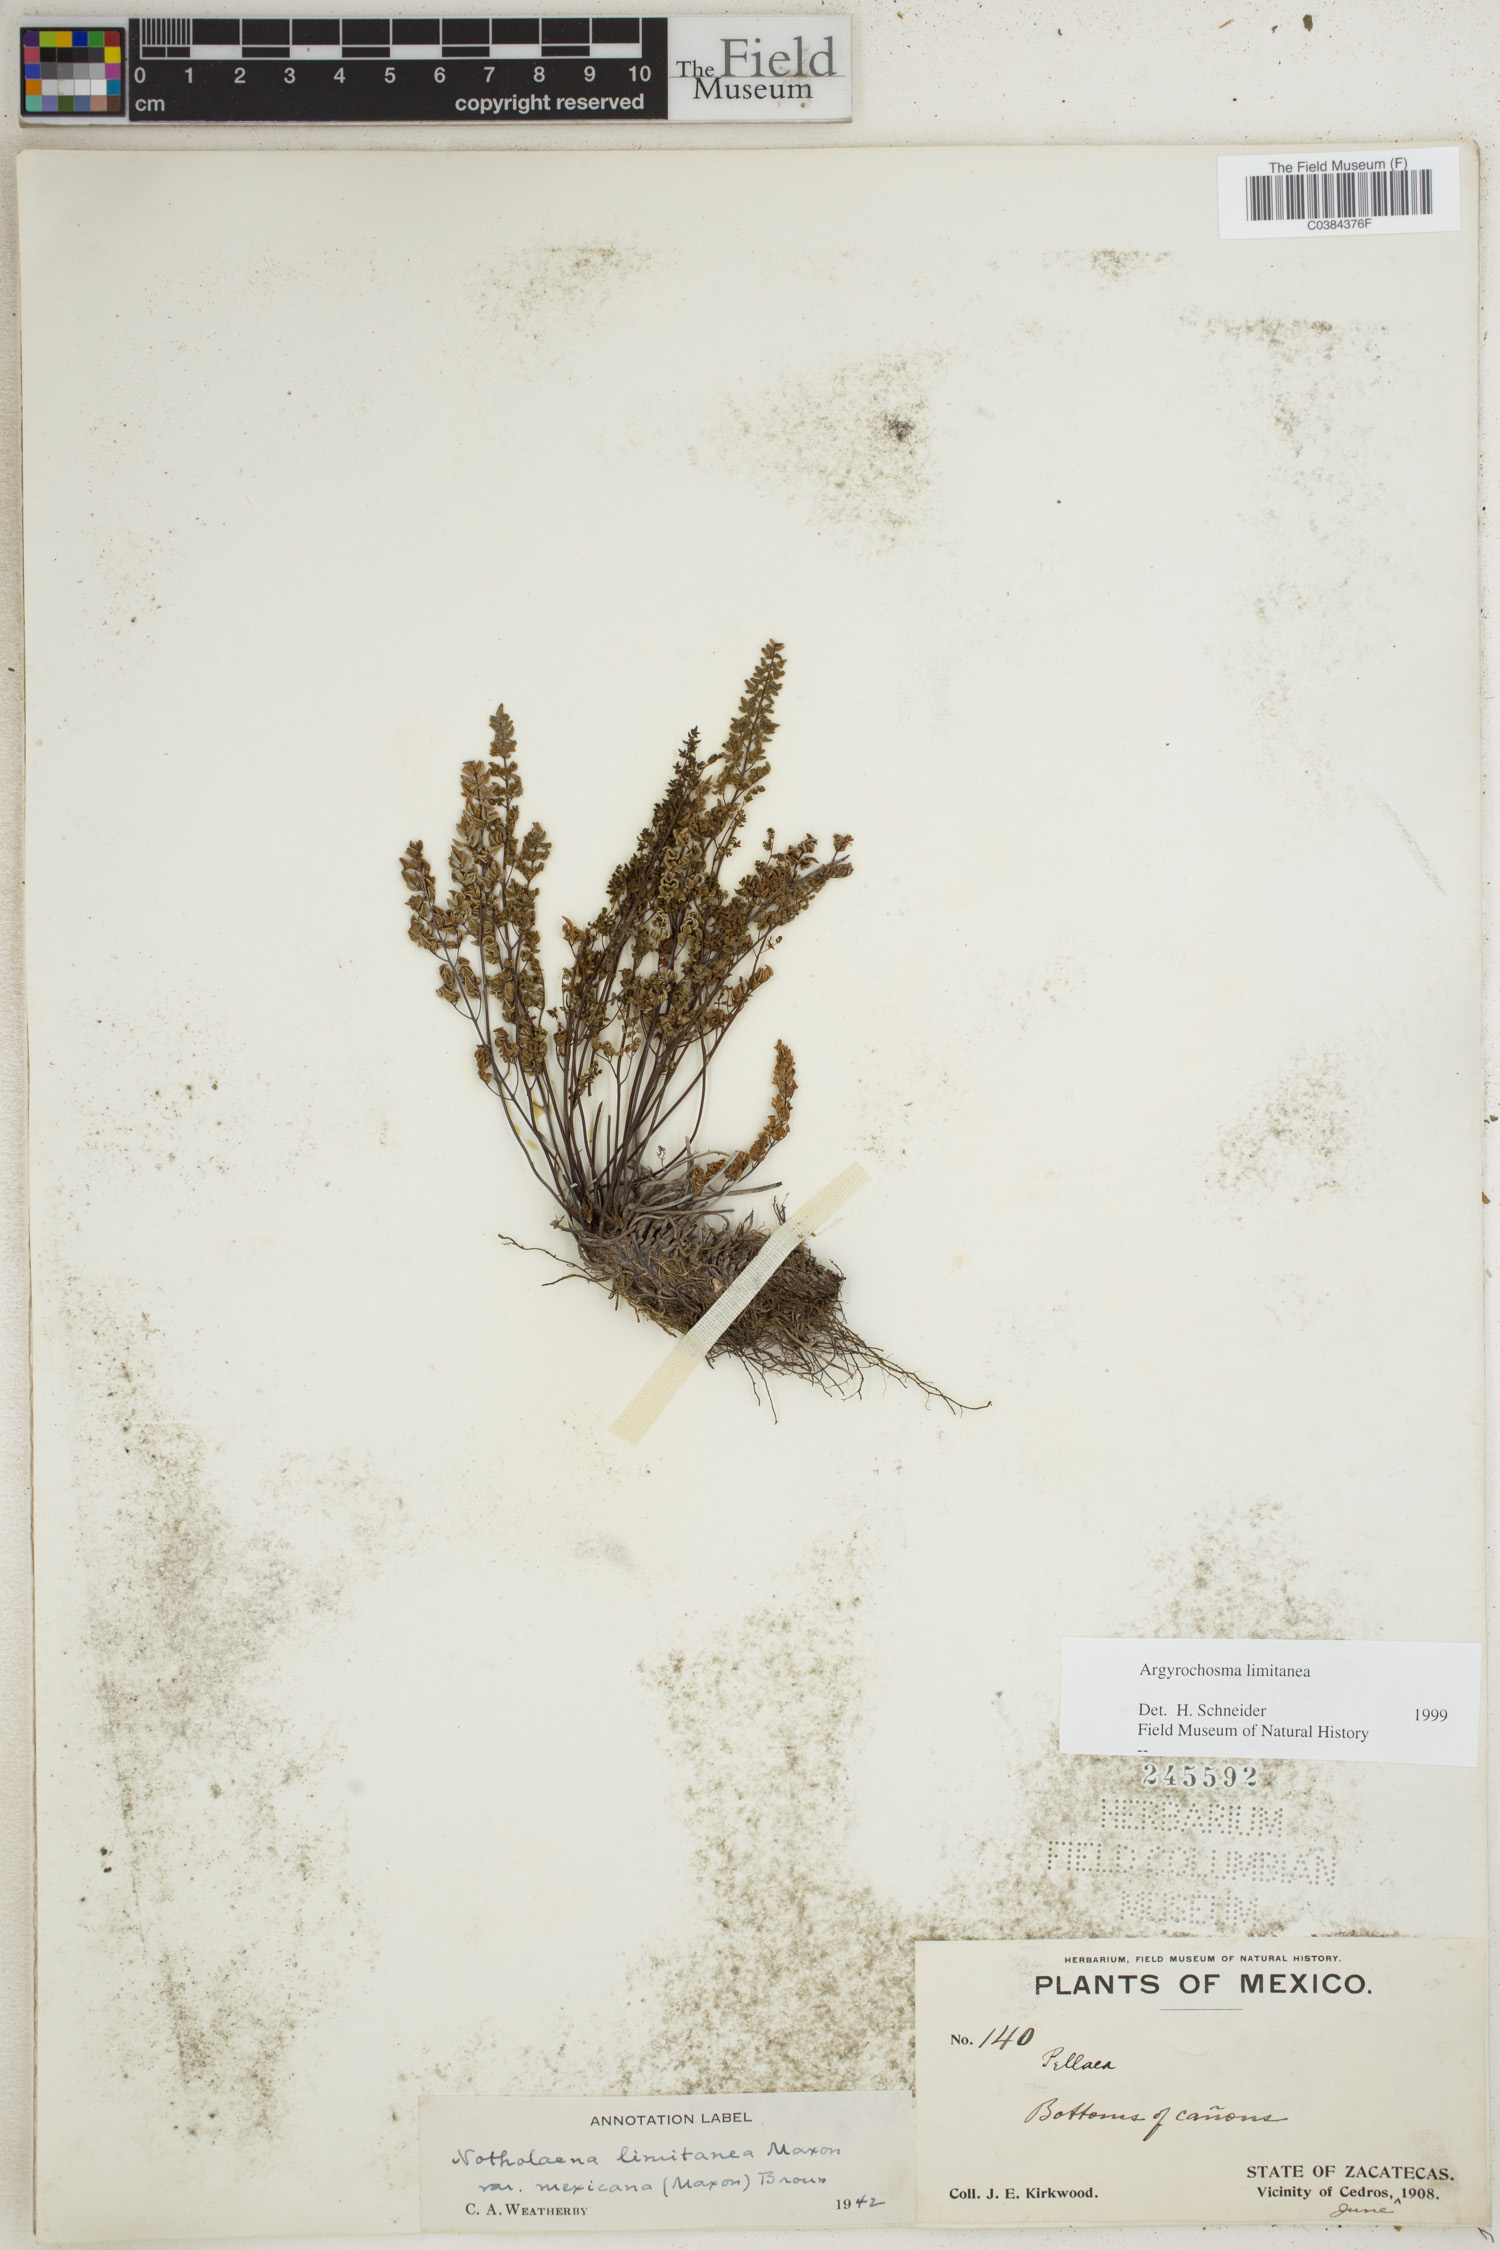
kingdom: Plantae
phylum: Tracheophyta
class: Polypodiopsida
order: Polypodiales
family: Pteridaceae
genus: Argyrochosma
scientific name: Argyrochosma limitanea
